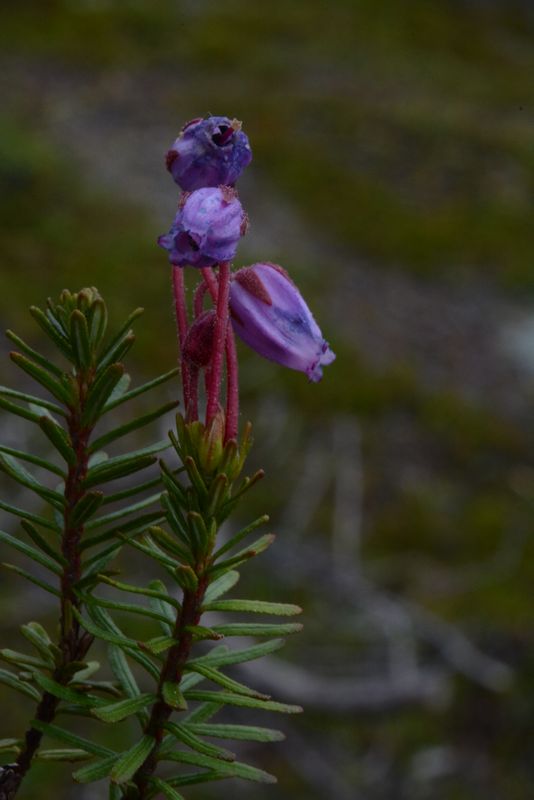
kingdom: Plantae
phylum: Tracheophyta
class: Magnoliopsida
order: Ericales
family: Ericaceae
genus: Phyllodoce
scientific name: Phyllodoce caerulea
